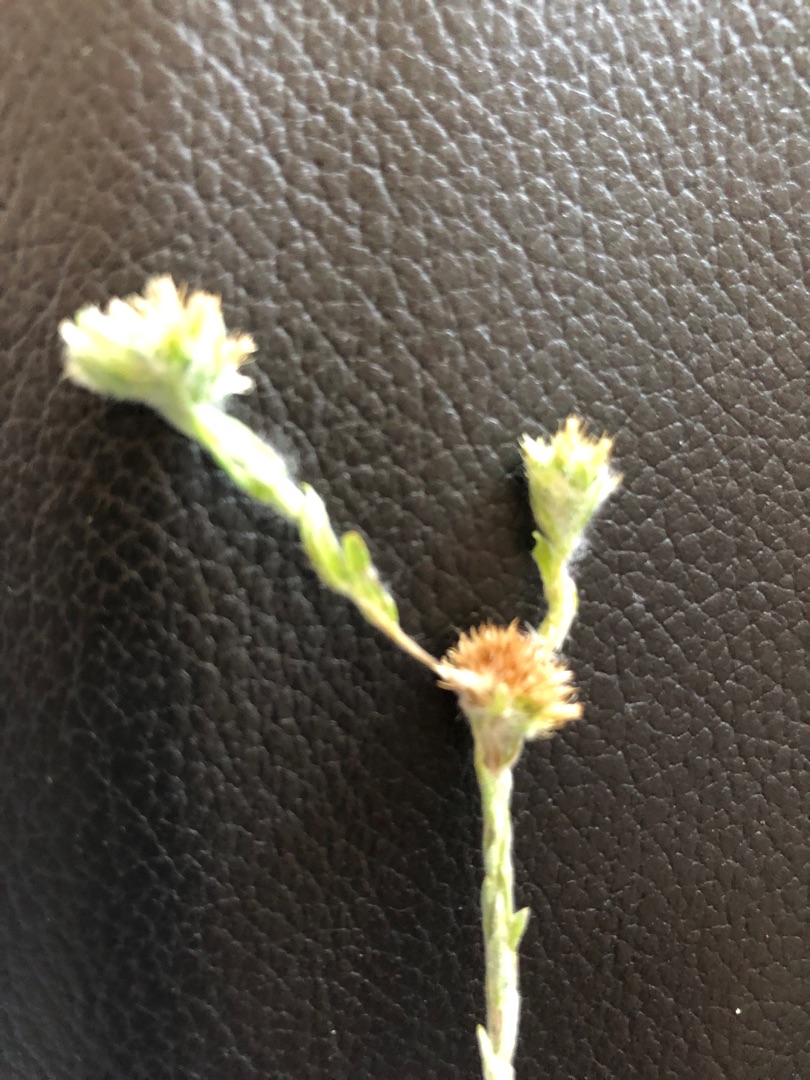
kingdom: Plantae
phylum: Tracheophyta
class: Magnoliopsida
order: Asterales
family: Asteraceae
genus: Filago
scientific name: Filago germanica
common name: Kugle-museurt
